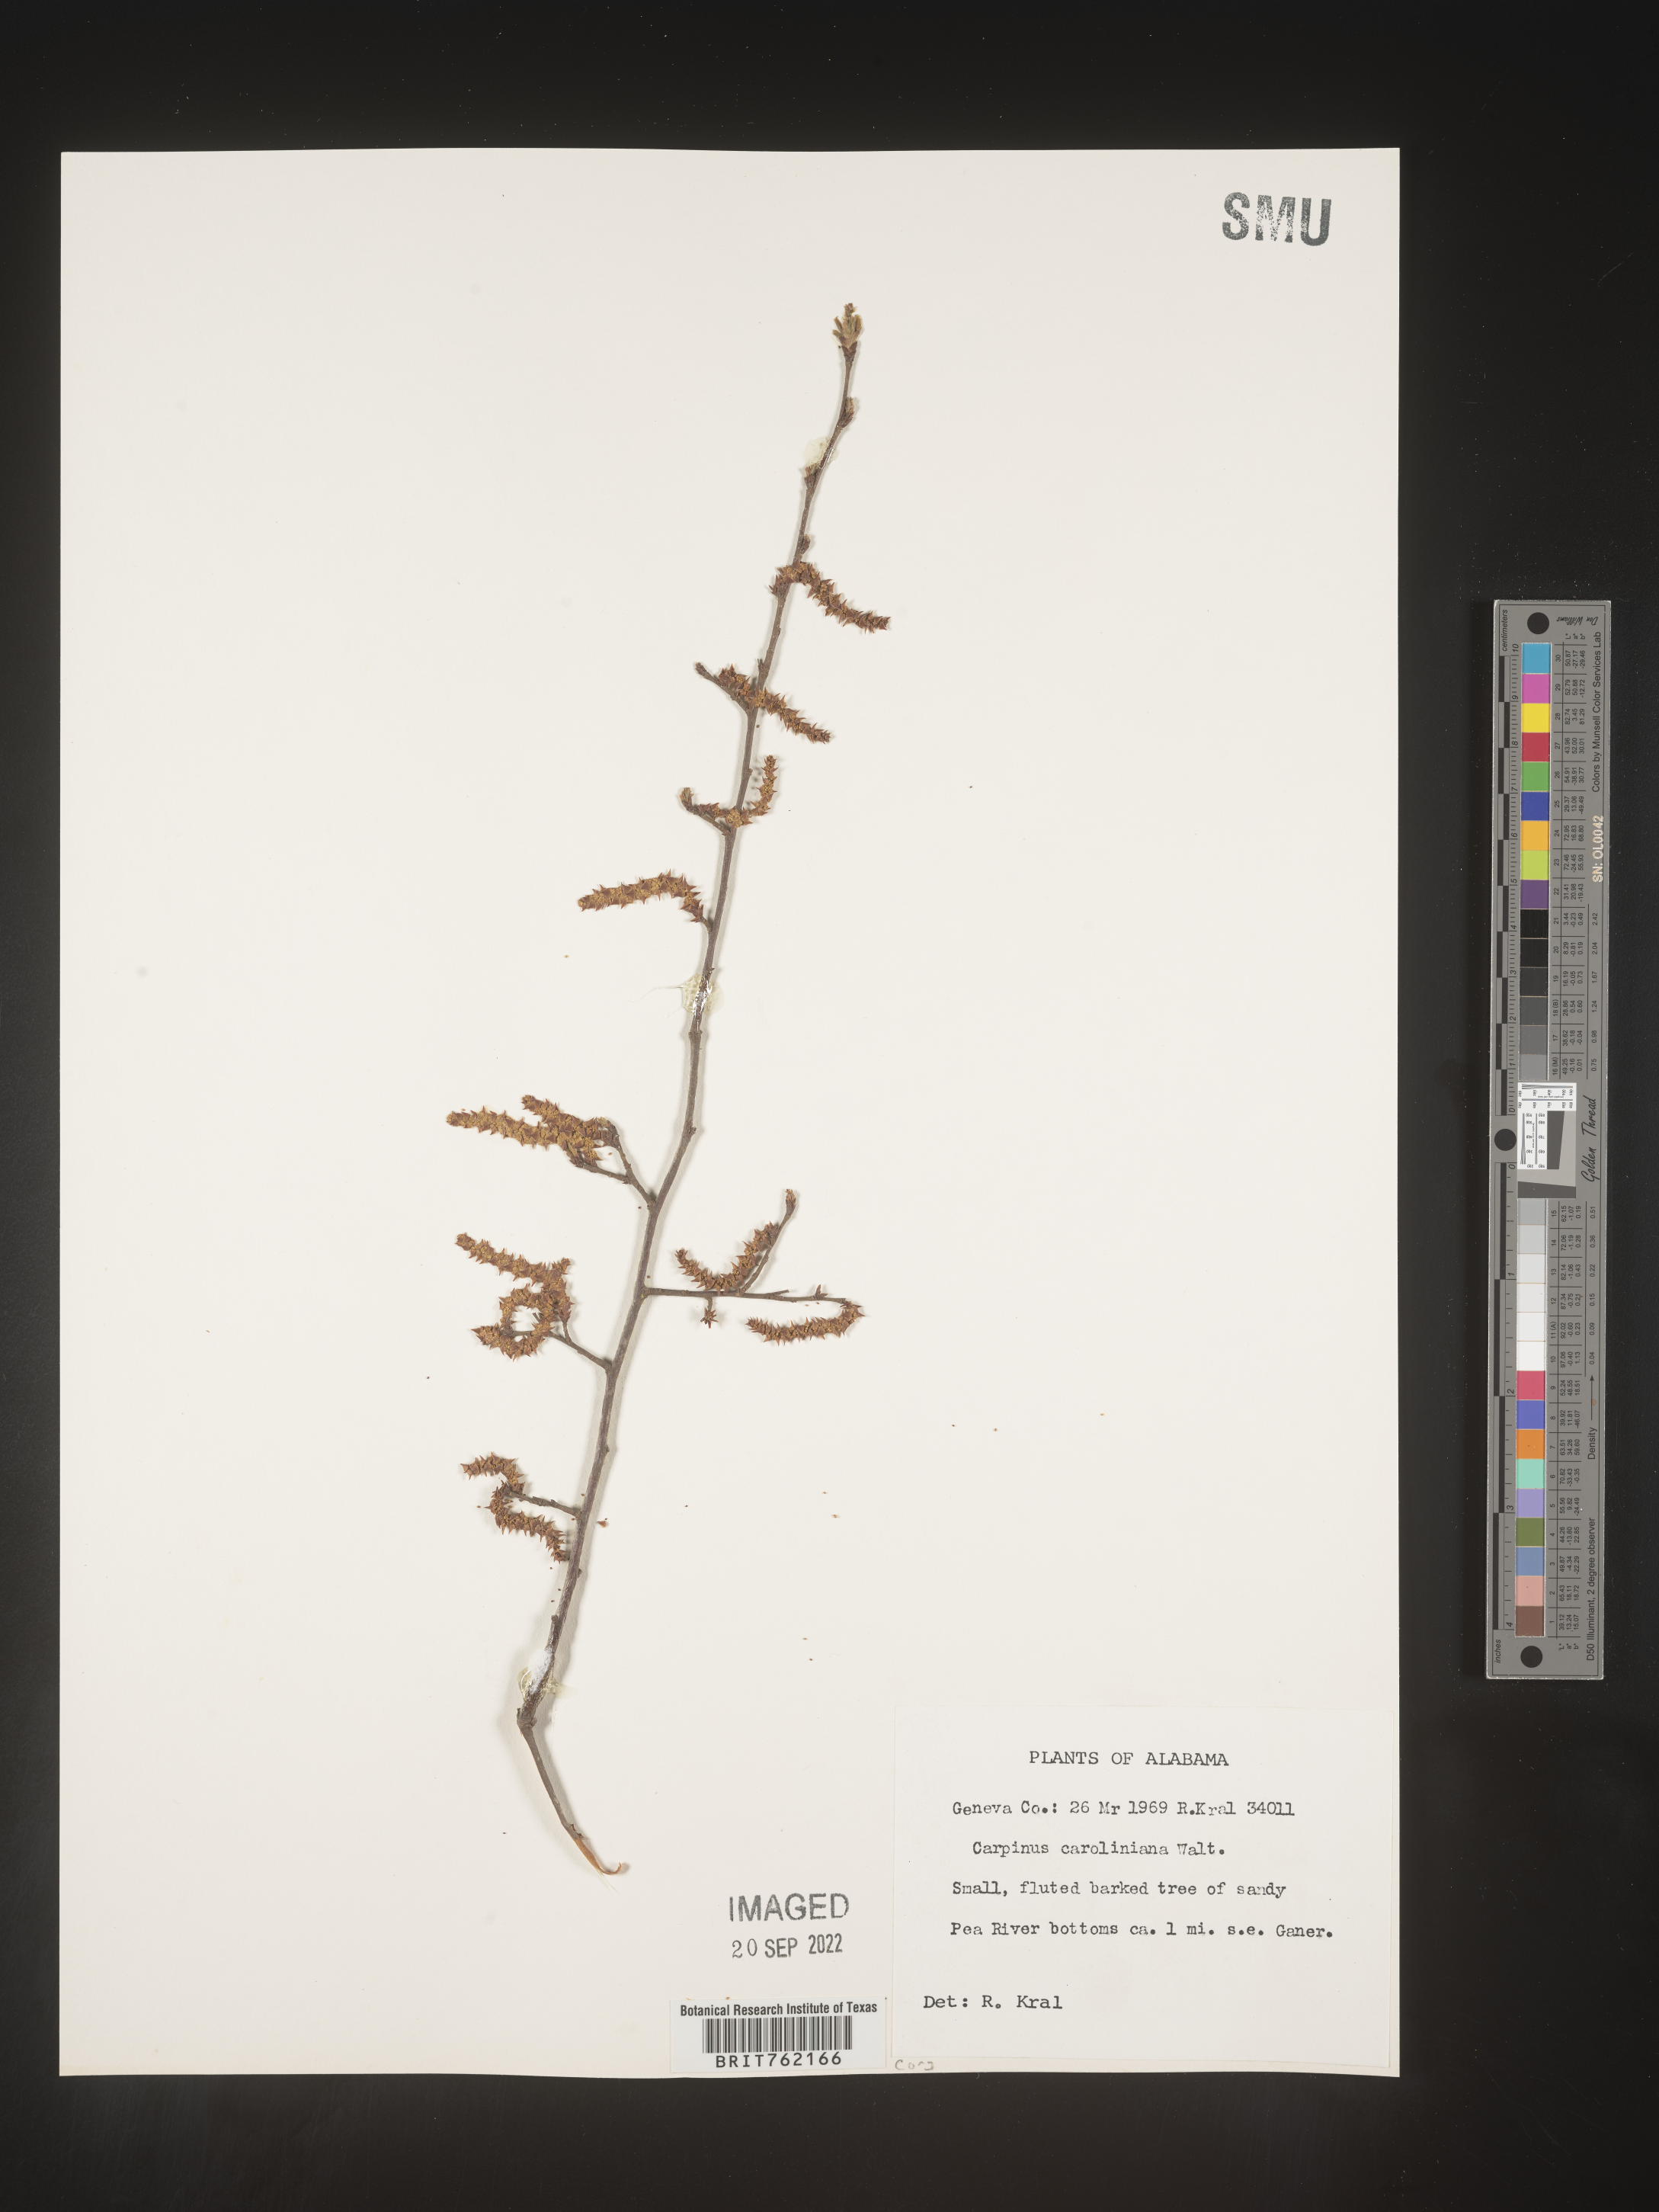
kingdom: Plantae
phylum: Tracheophyta
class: Magnoliopsida
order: Fagales
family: Betulaceae
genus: Carpinus
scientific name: Carpinus caroliniana
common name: American hornbeam
